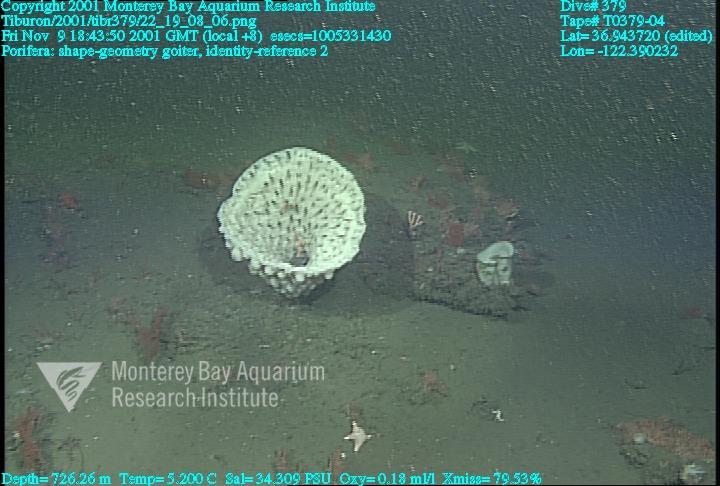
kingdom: Animalia
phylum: Porifera
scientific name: Porifera
